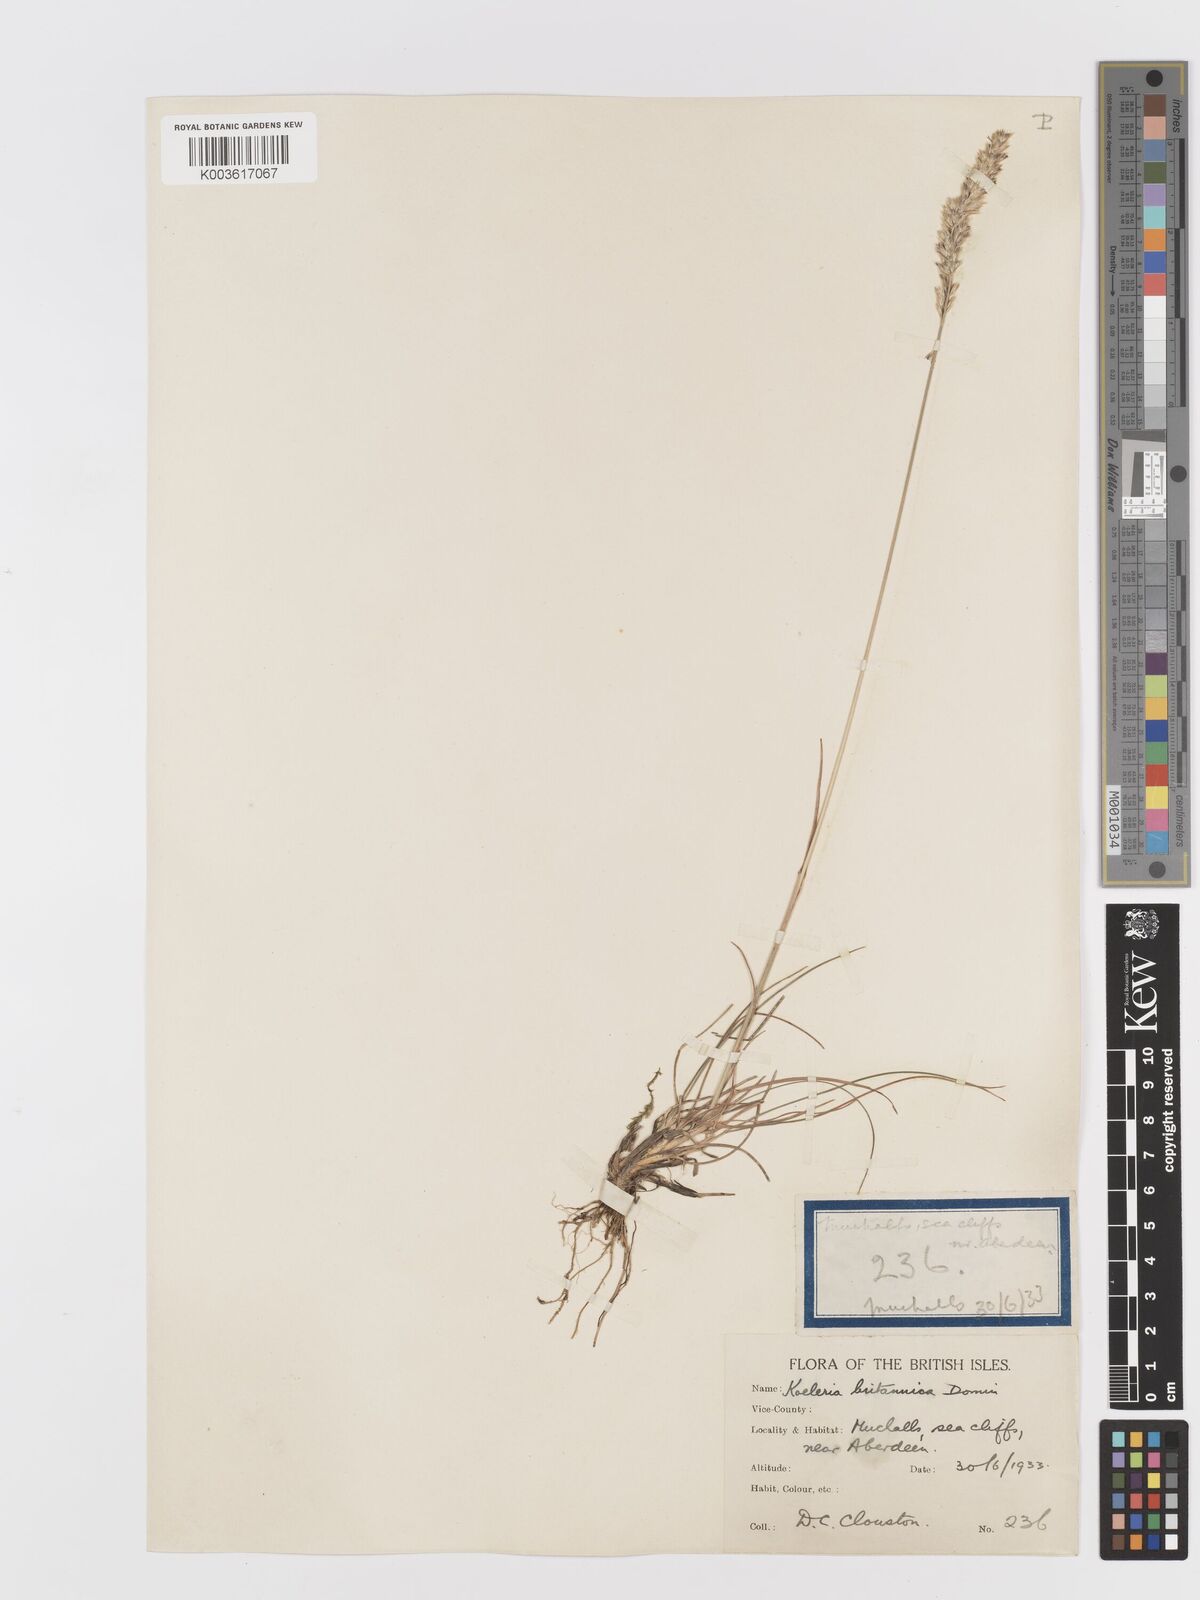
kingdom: Plantae
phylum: Tracheophyta
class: Liliopsida
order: Poales
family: Poaceae
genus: Koeleria
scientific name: Koeleria macrantha
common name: Crested hair-grass
